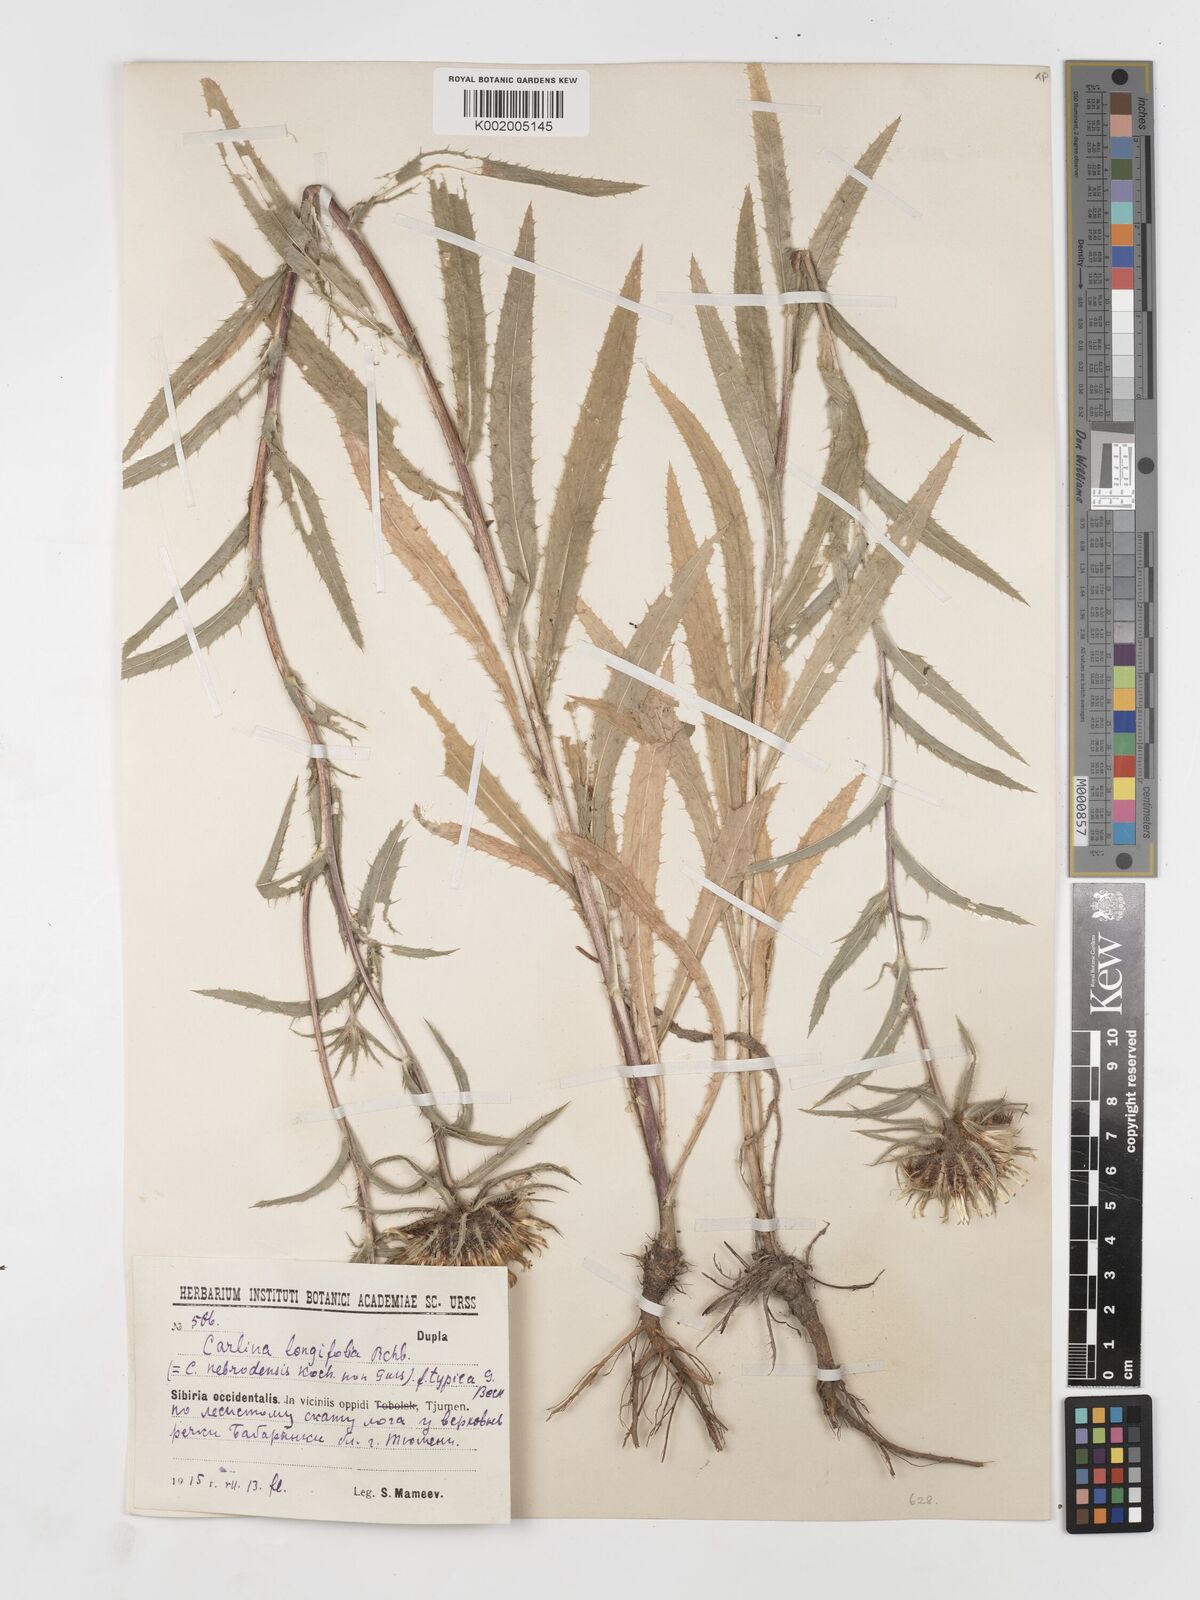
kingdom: Plantae
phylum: Tracheophyta
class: Magnoliopsida
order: Asterales
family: Asteraceae
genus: Carlina
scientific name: Carlina biebersteinii
